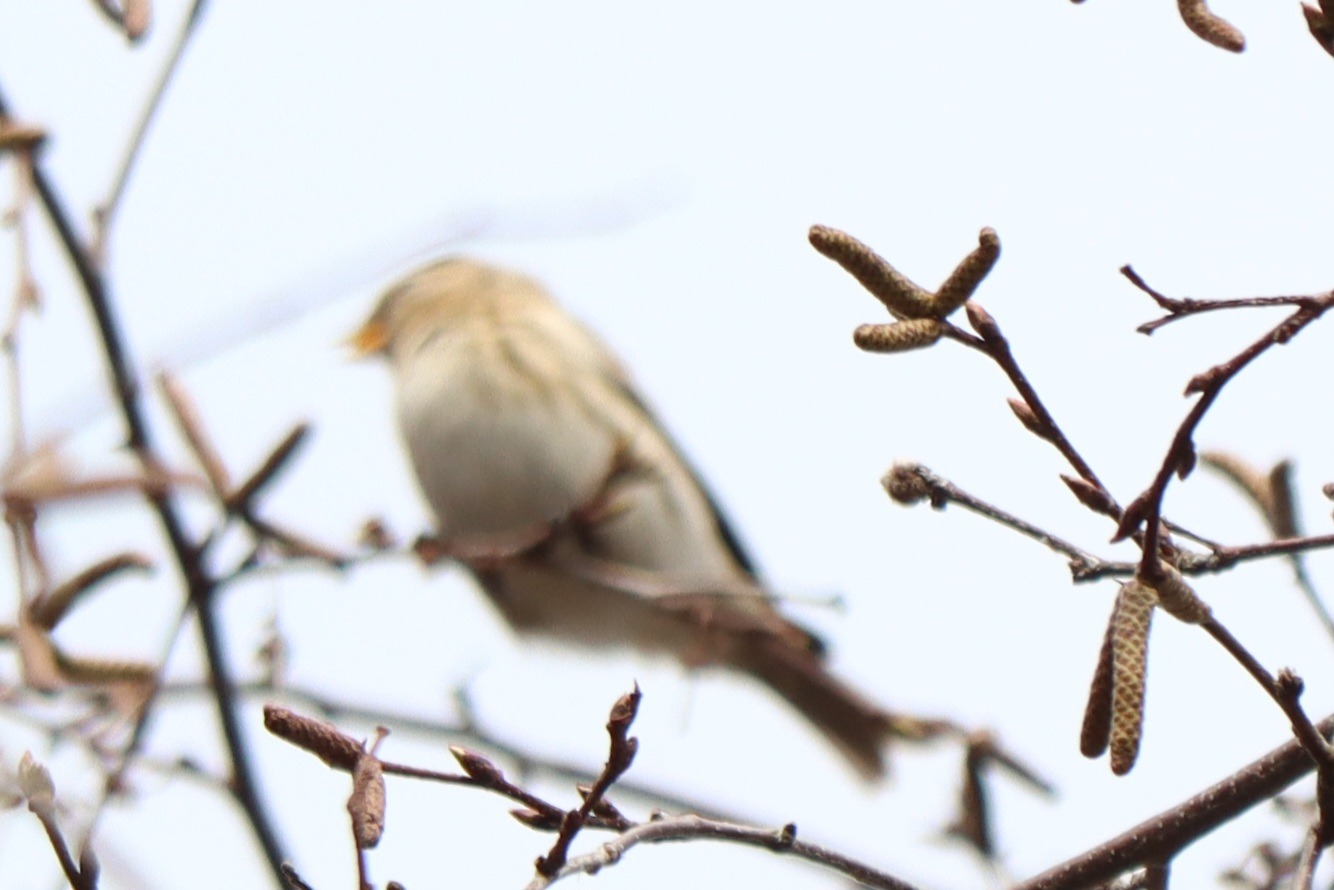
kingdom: Animalia
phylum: Chordata
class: Aves
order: Passeriformes
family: Fringillidae
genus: Acanthis
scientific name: Acanthis flammea
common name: Nordlig gråsisken
